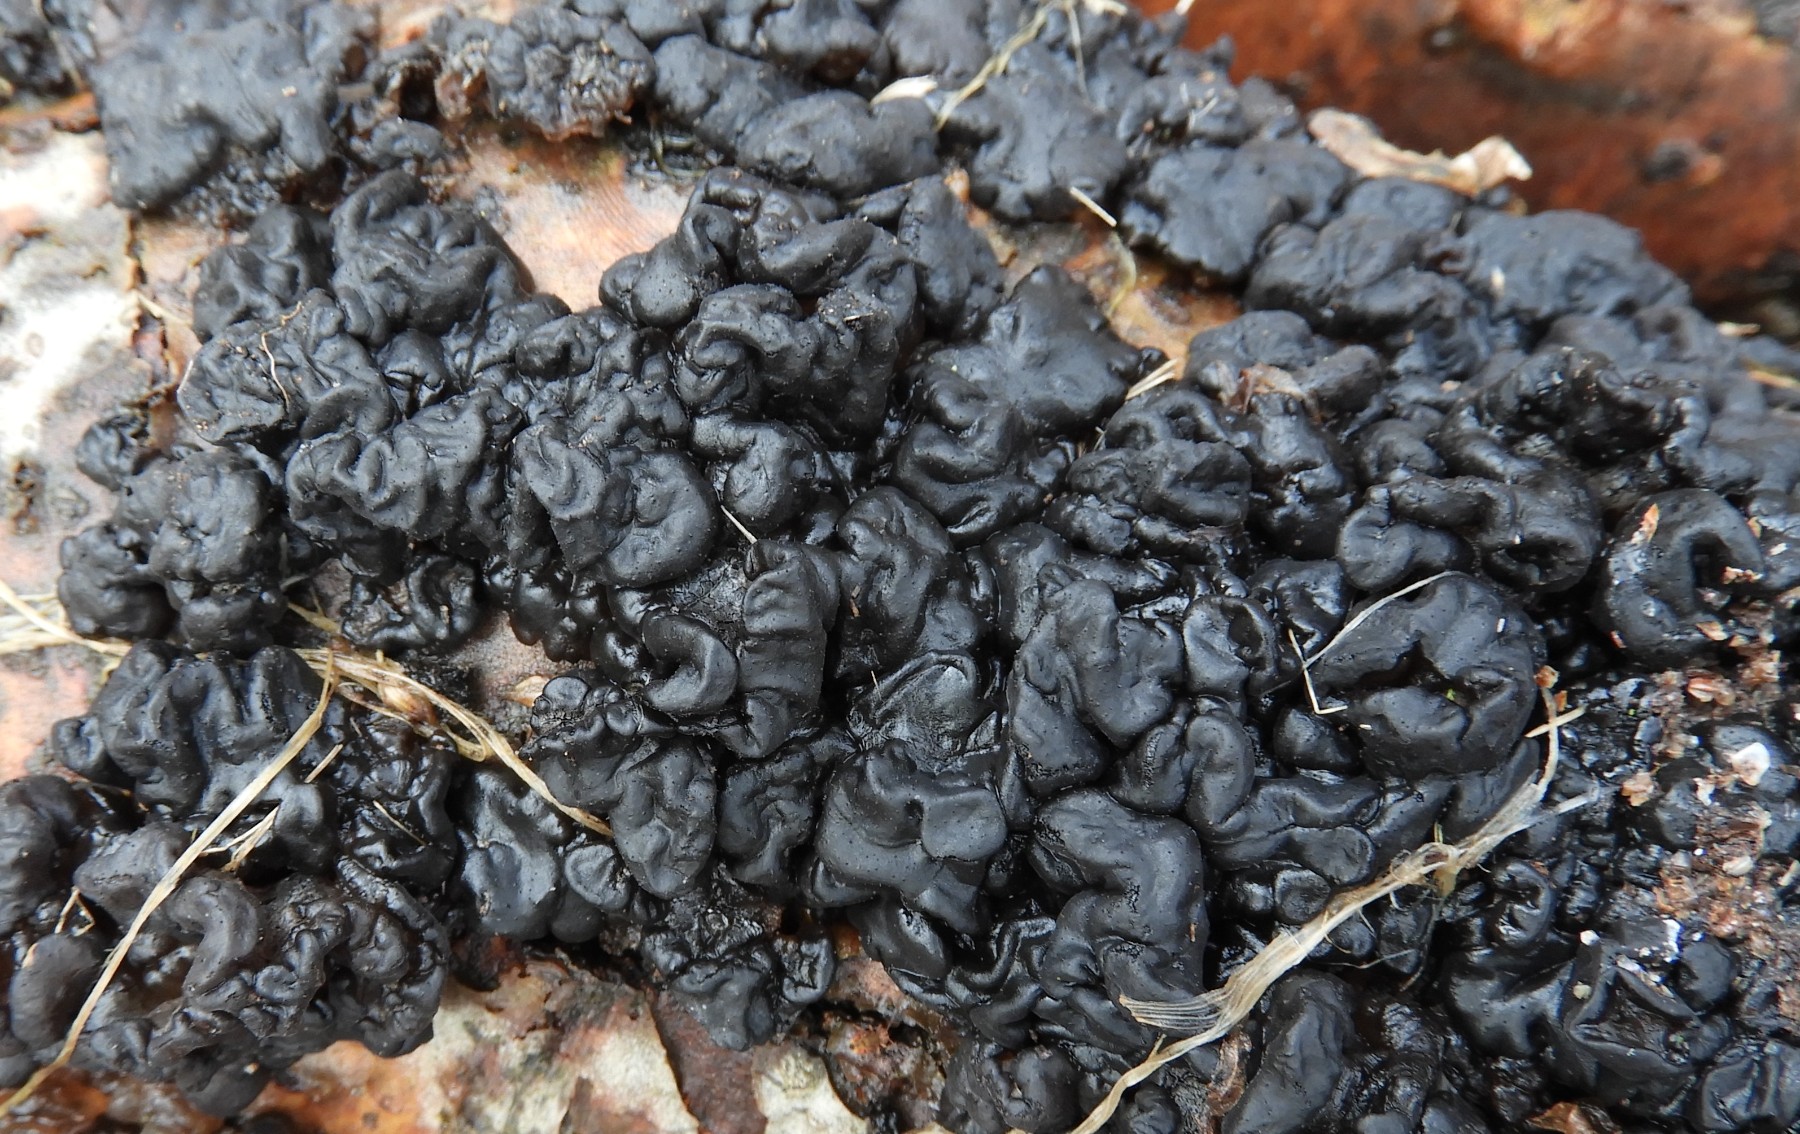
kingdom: Fungi
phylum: Basidiomycota
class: Agaricomycetes
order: Auriculariales
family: Auriculariaceae
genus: Exidia
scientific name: Exidia nigricans
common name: almindelig bævretop
